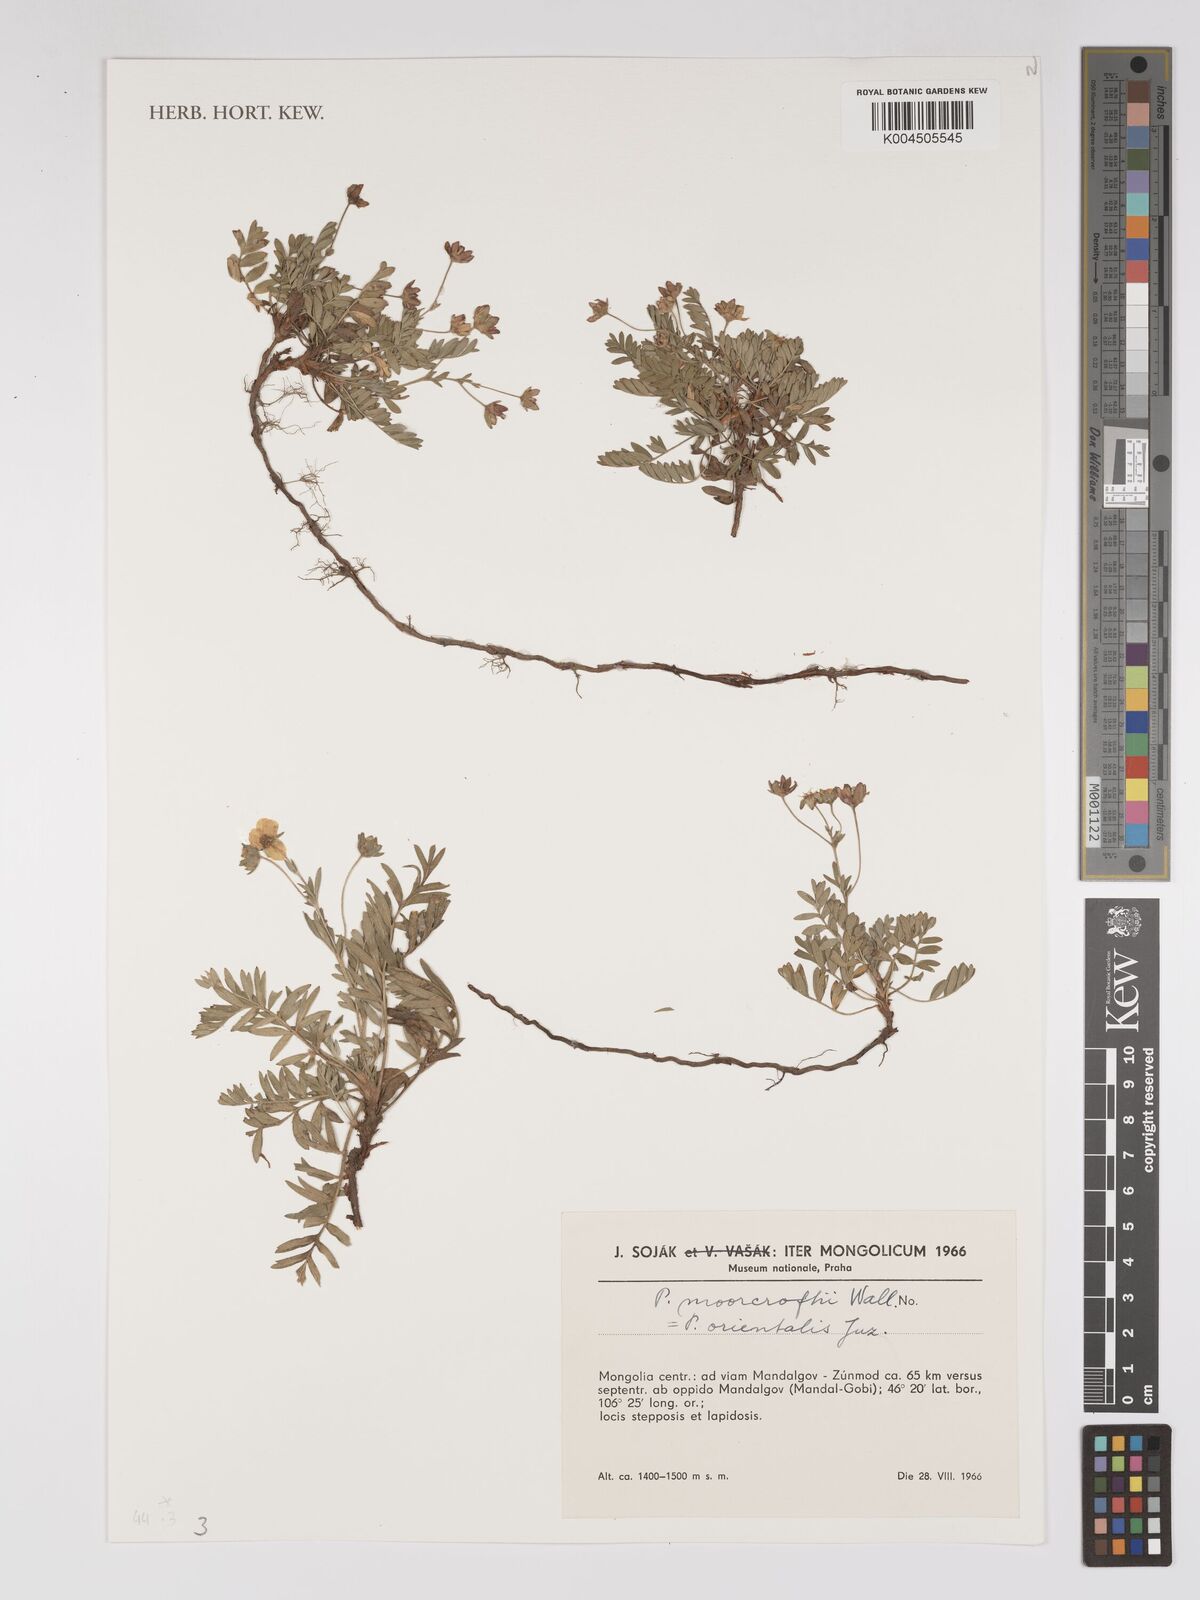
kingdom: Plantae
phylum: Tracheophyta
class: Magnoliopsida
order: Rosales
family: Rosaceae
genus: Sibbaldianthe
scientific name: Sibbaldianthe orientalis
